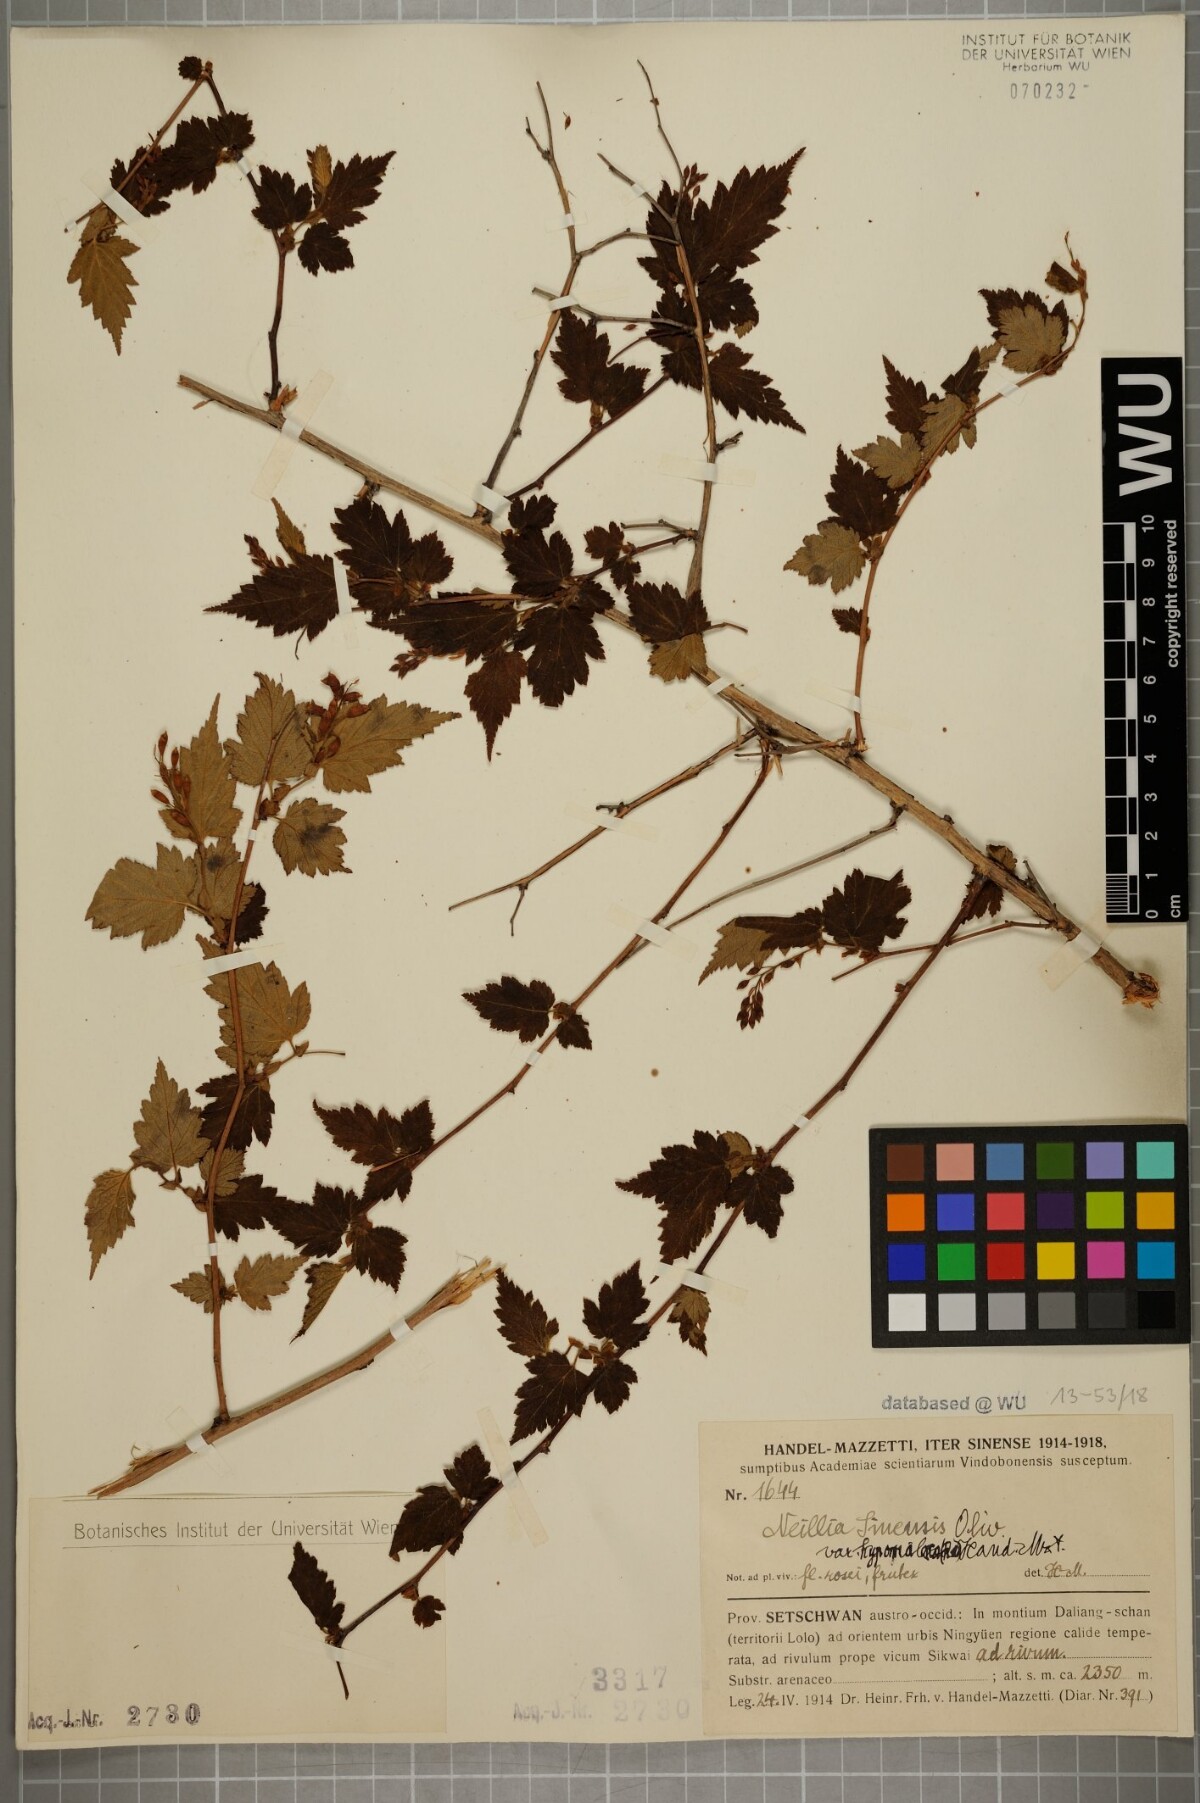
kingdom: Plantae
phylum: Tracheophyta
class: Magnoliopsida
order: Rosales
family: Rosaceae
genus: Neillia
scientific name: Neillia sinensis
